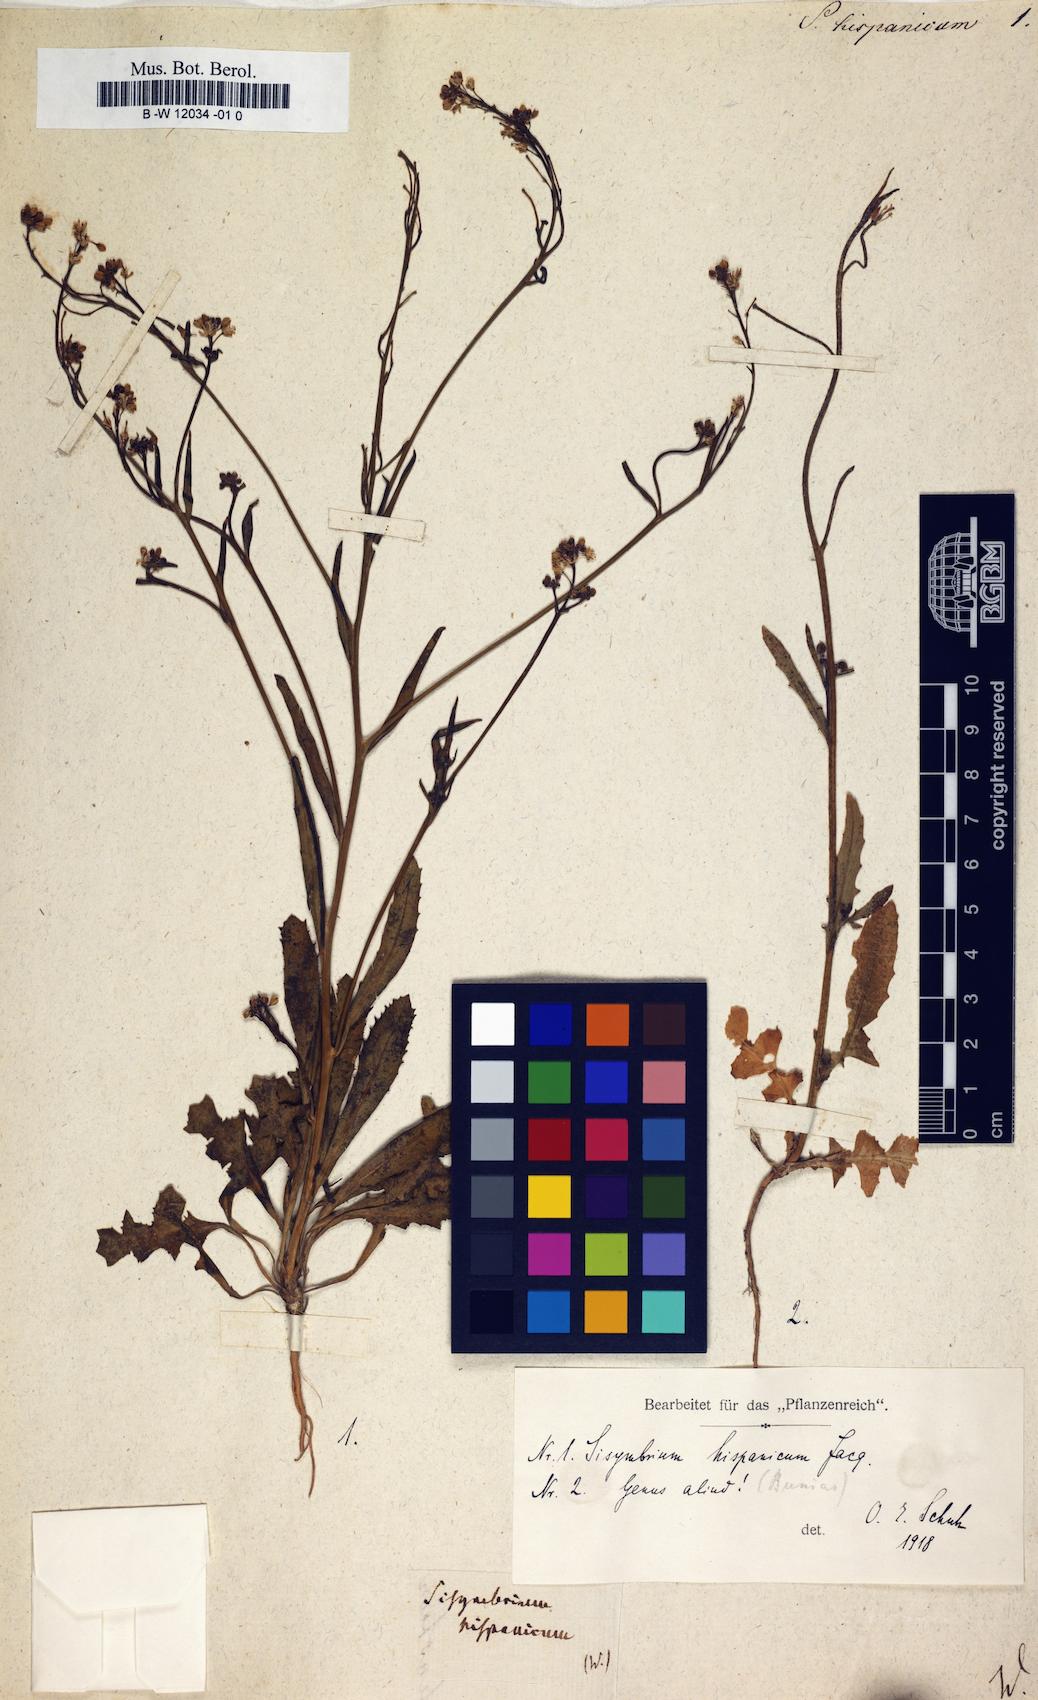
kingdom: Plantae
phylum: Tracheophyta
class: Magnoliopsida
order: Brassicales
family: Brassicaceae
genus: Sisymbrium
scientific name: Sisymbrium hispanicum
